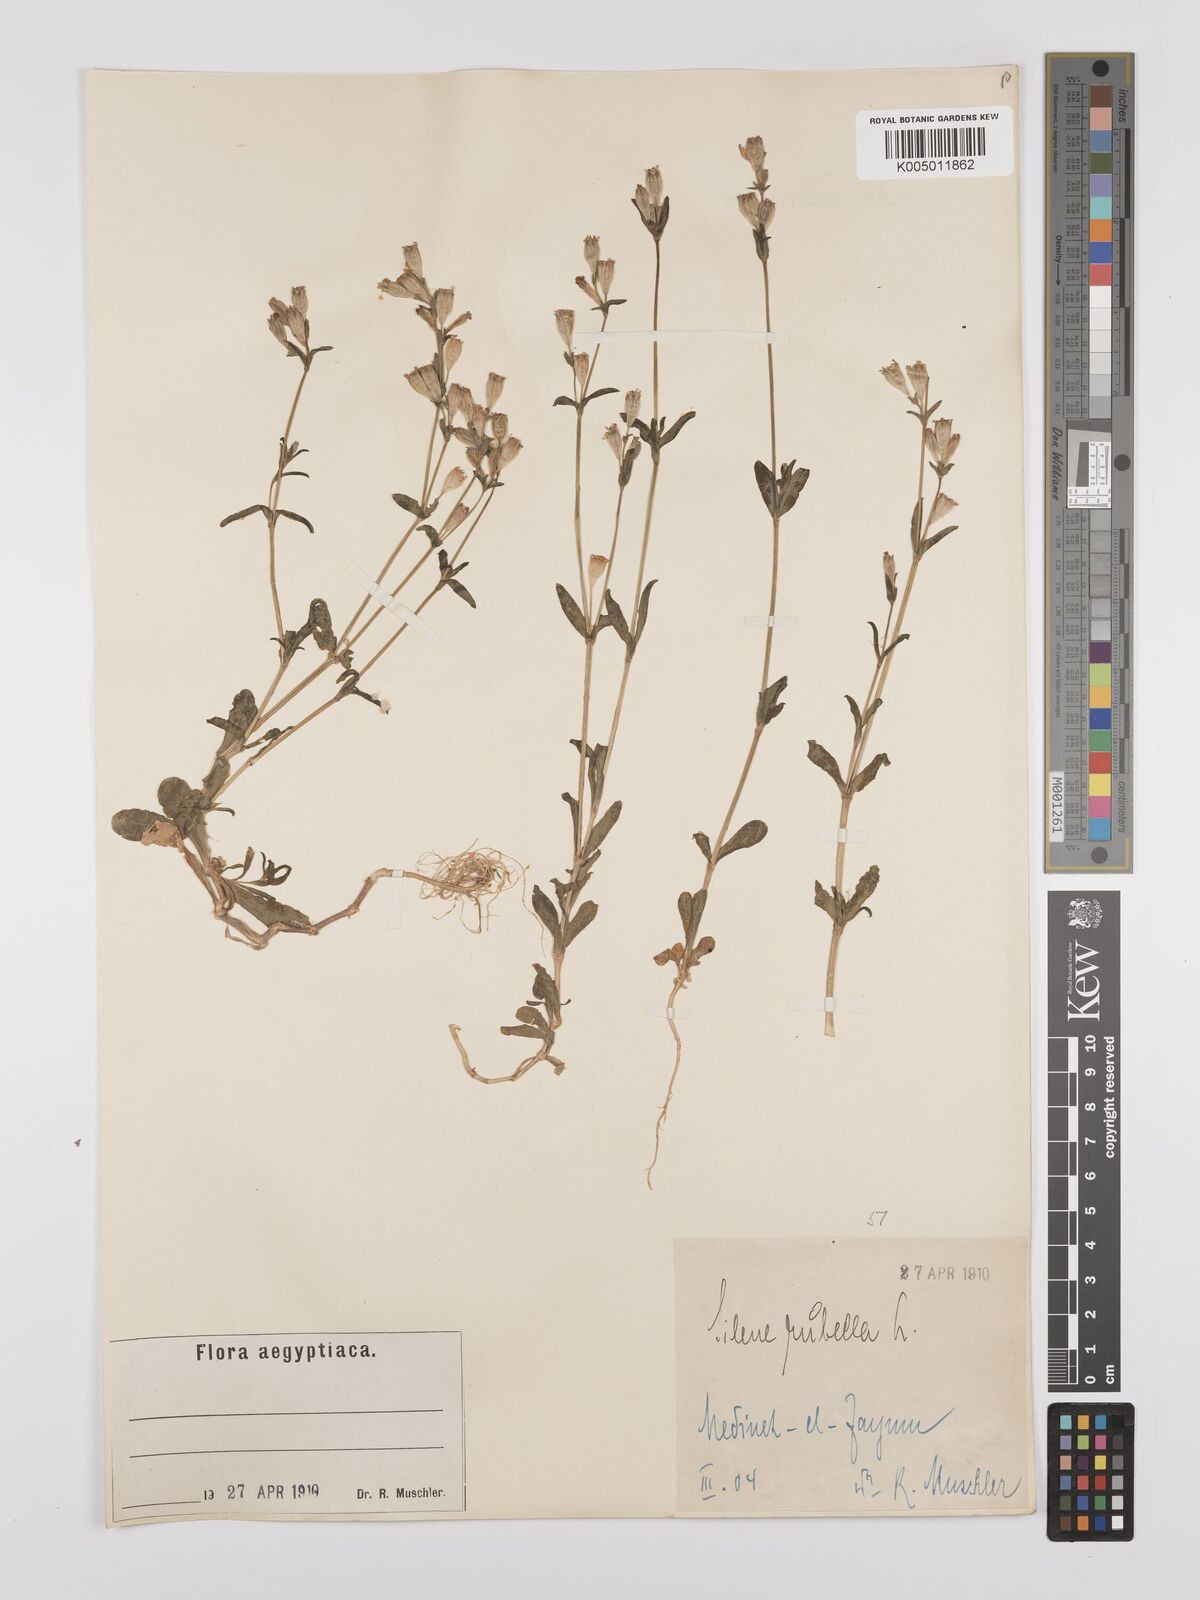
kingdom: Plantae
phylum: Tracheophyta
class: Magnoliopsida
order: Caryophyllales
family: Caryophyllaceae
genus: Silene
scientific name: Silene rubella
